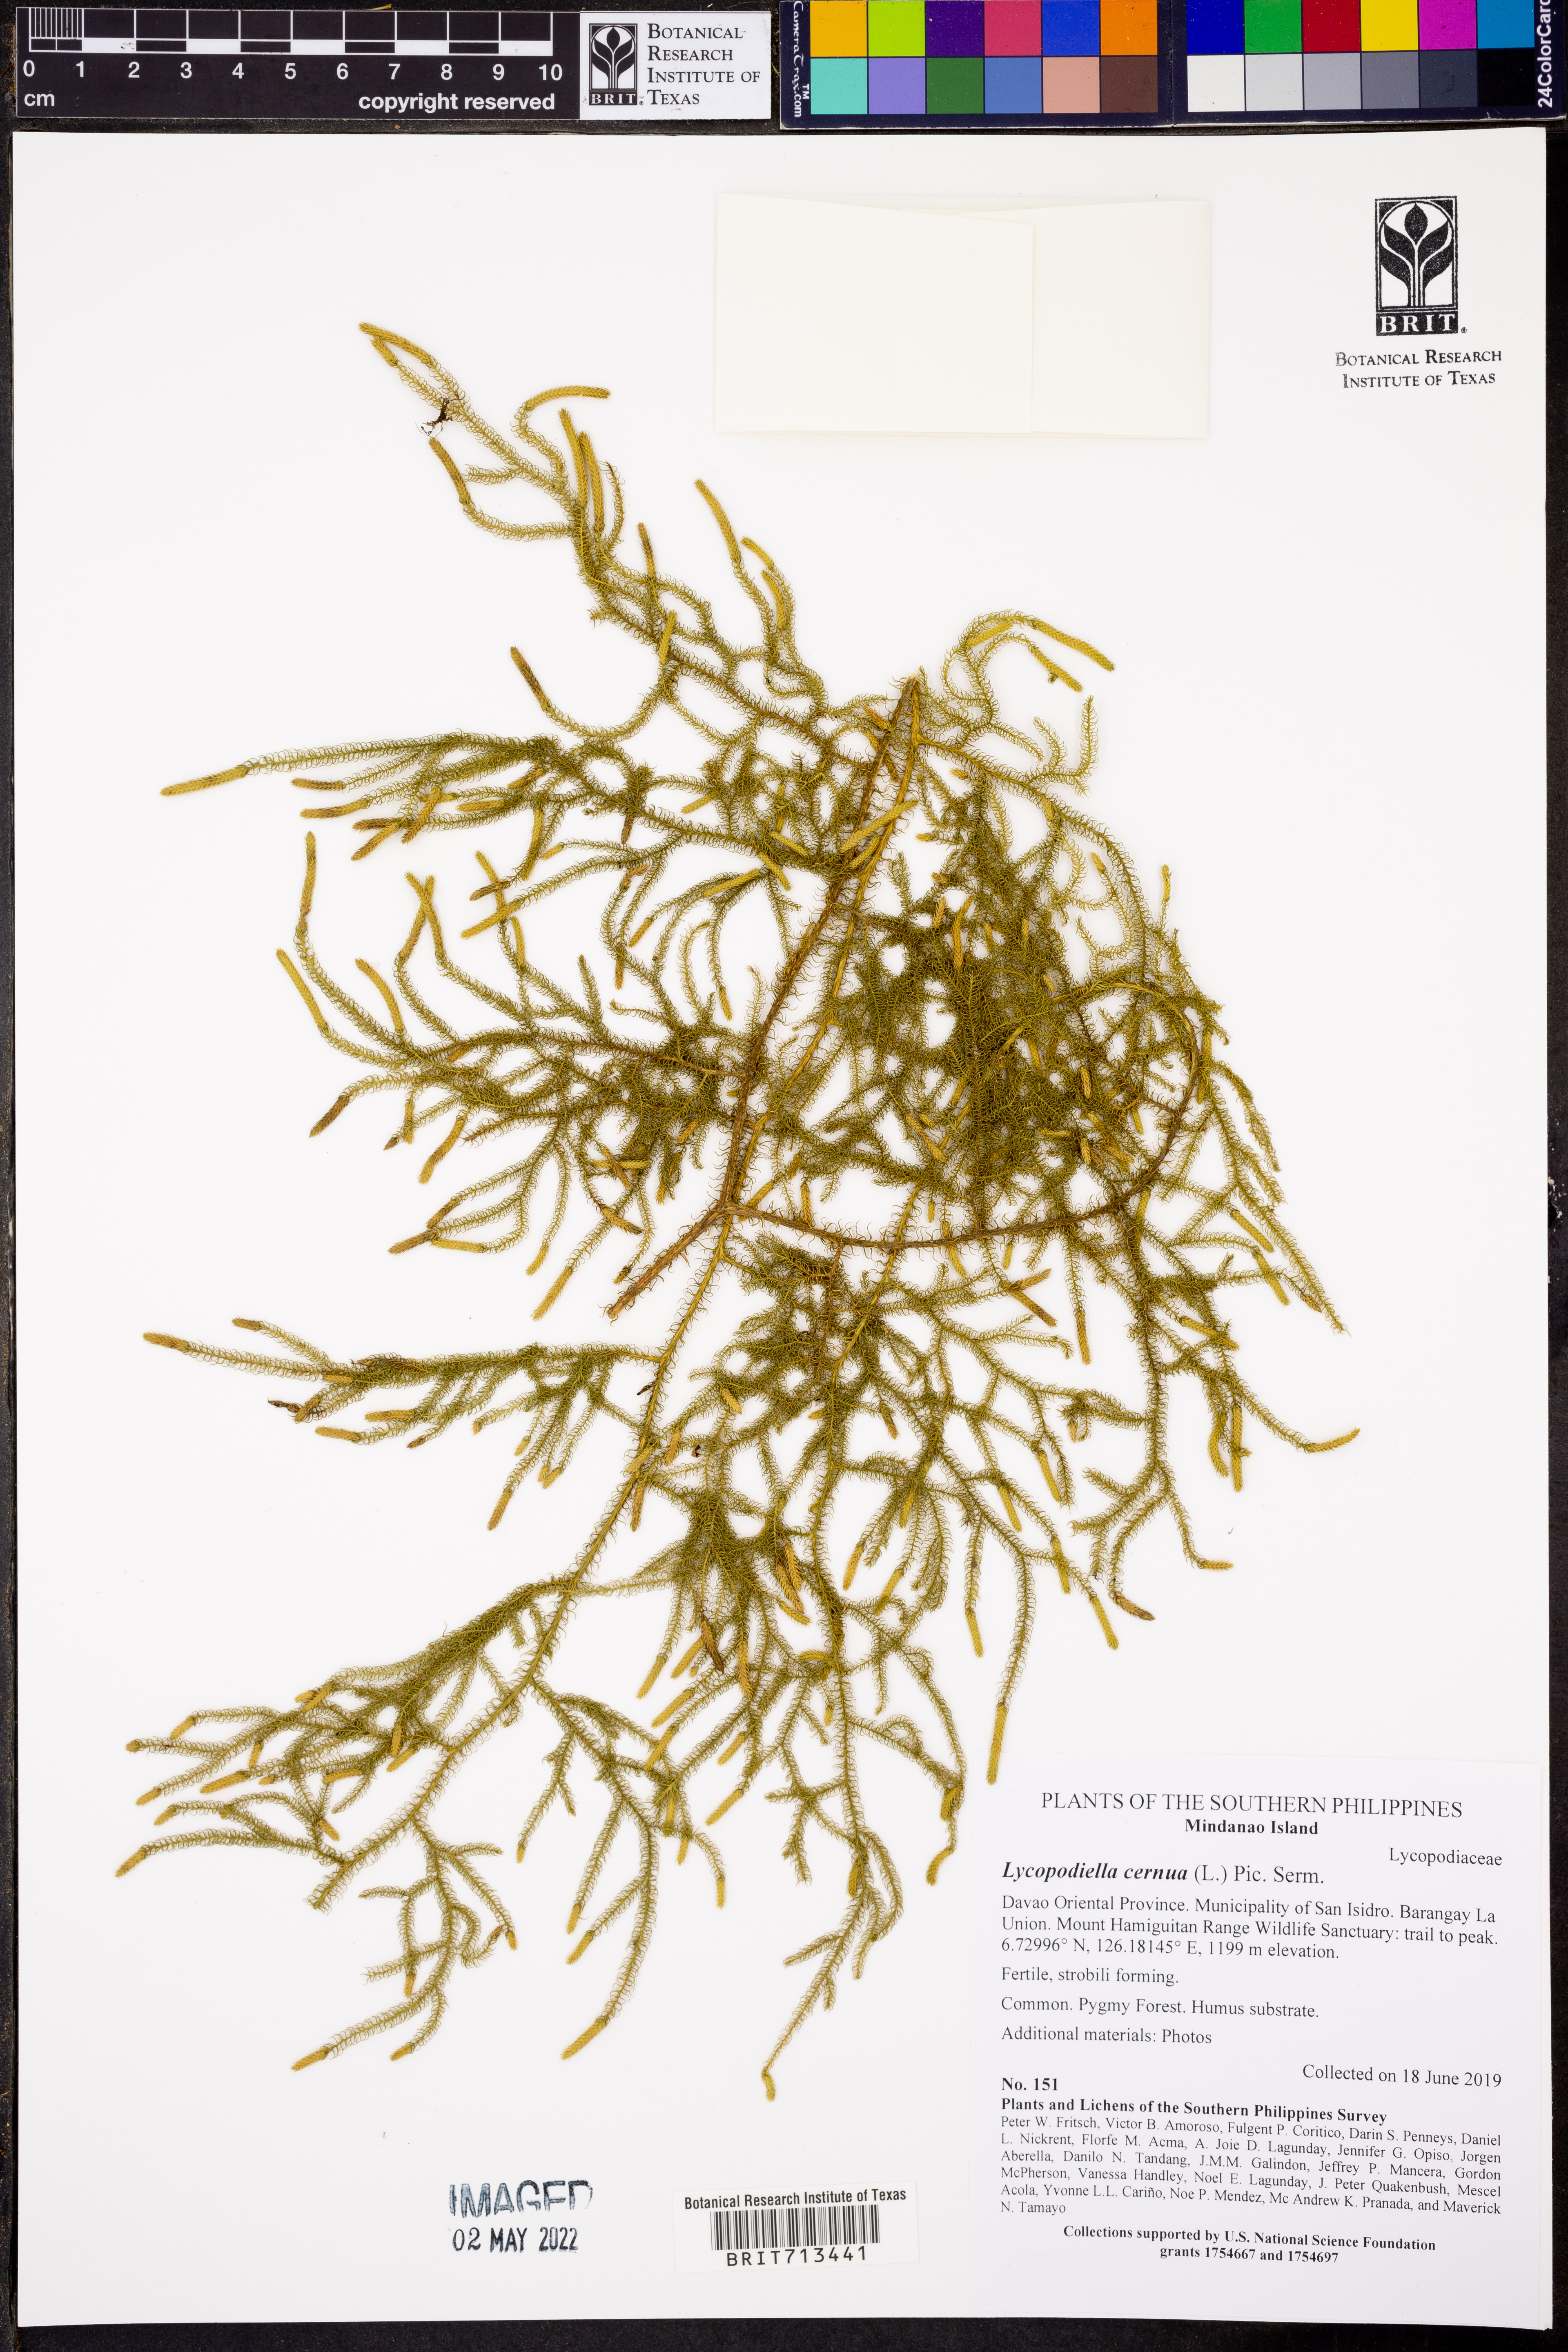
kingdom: Plantae
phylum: Tracheophyta
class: Lycopodiopsida
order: Lycopodiales
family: Lycopodiaceae
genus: Palhinhaea
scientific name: Palhinhaea cernua
